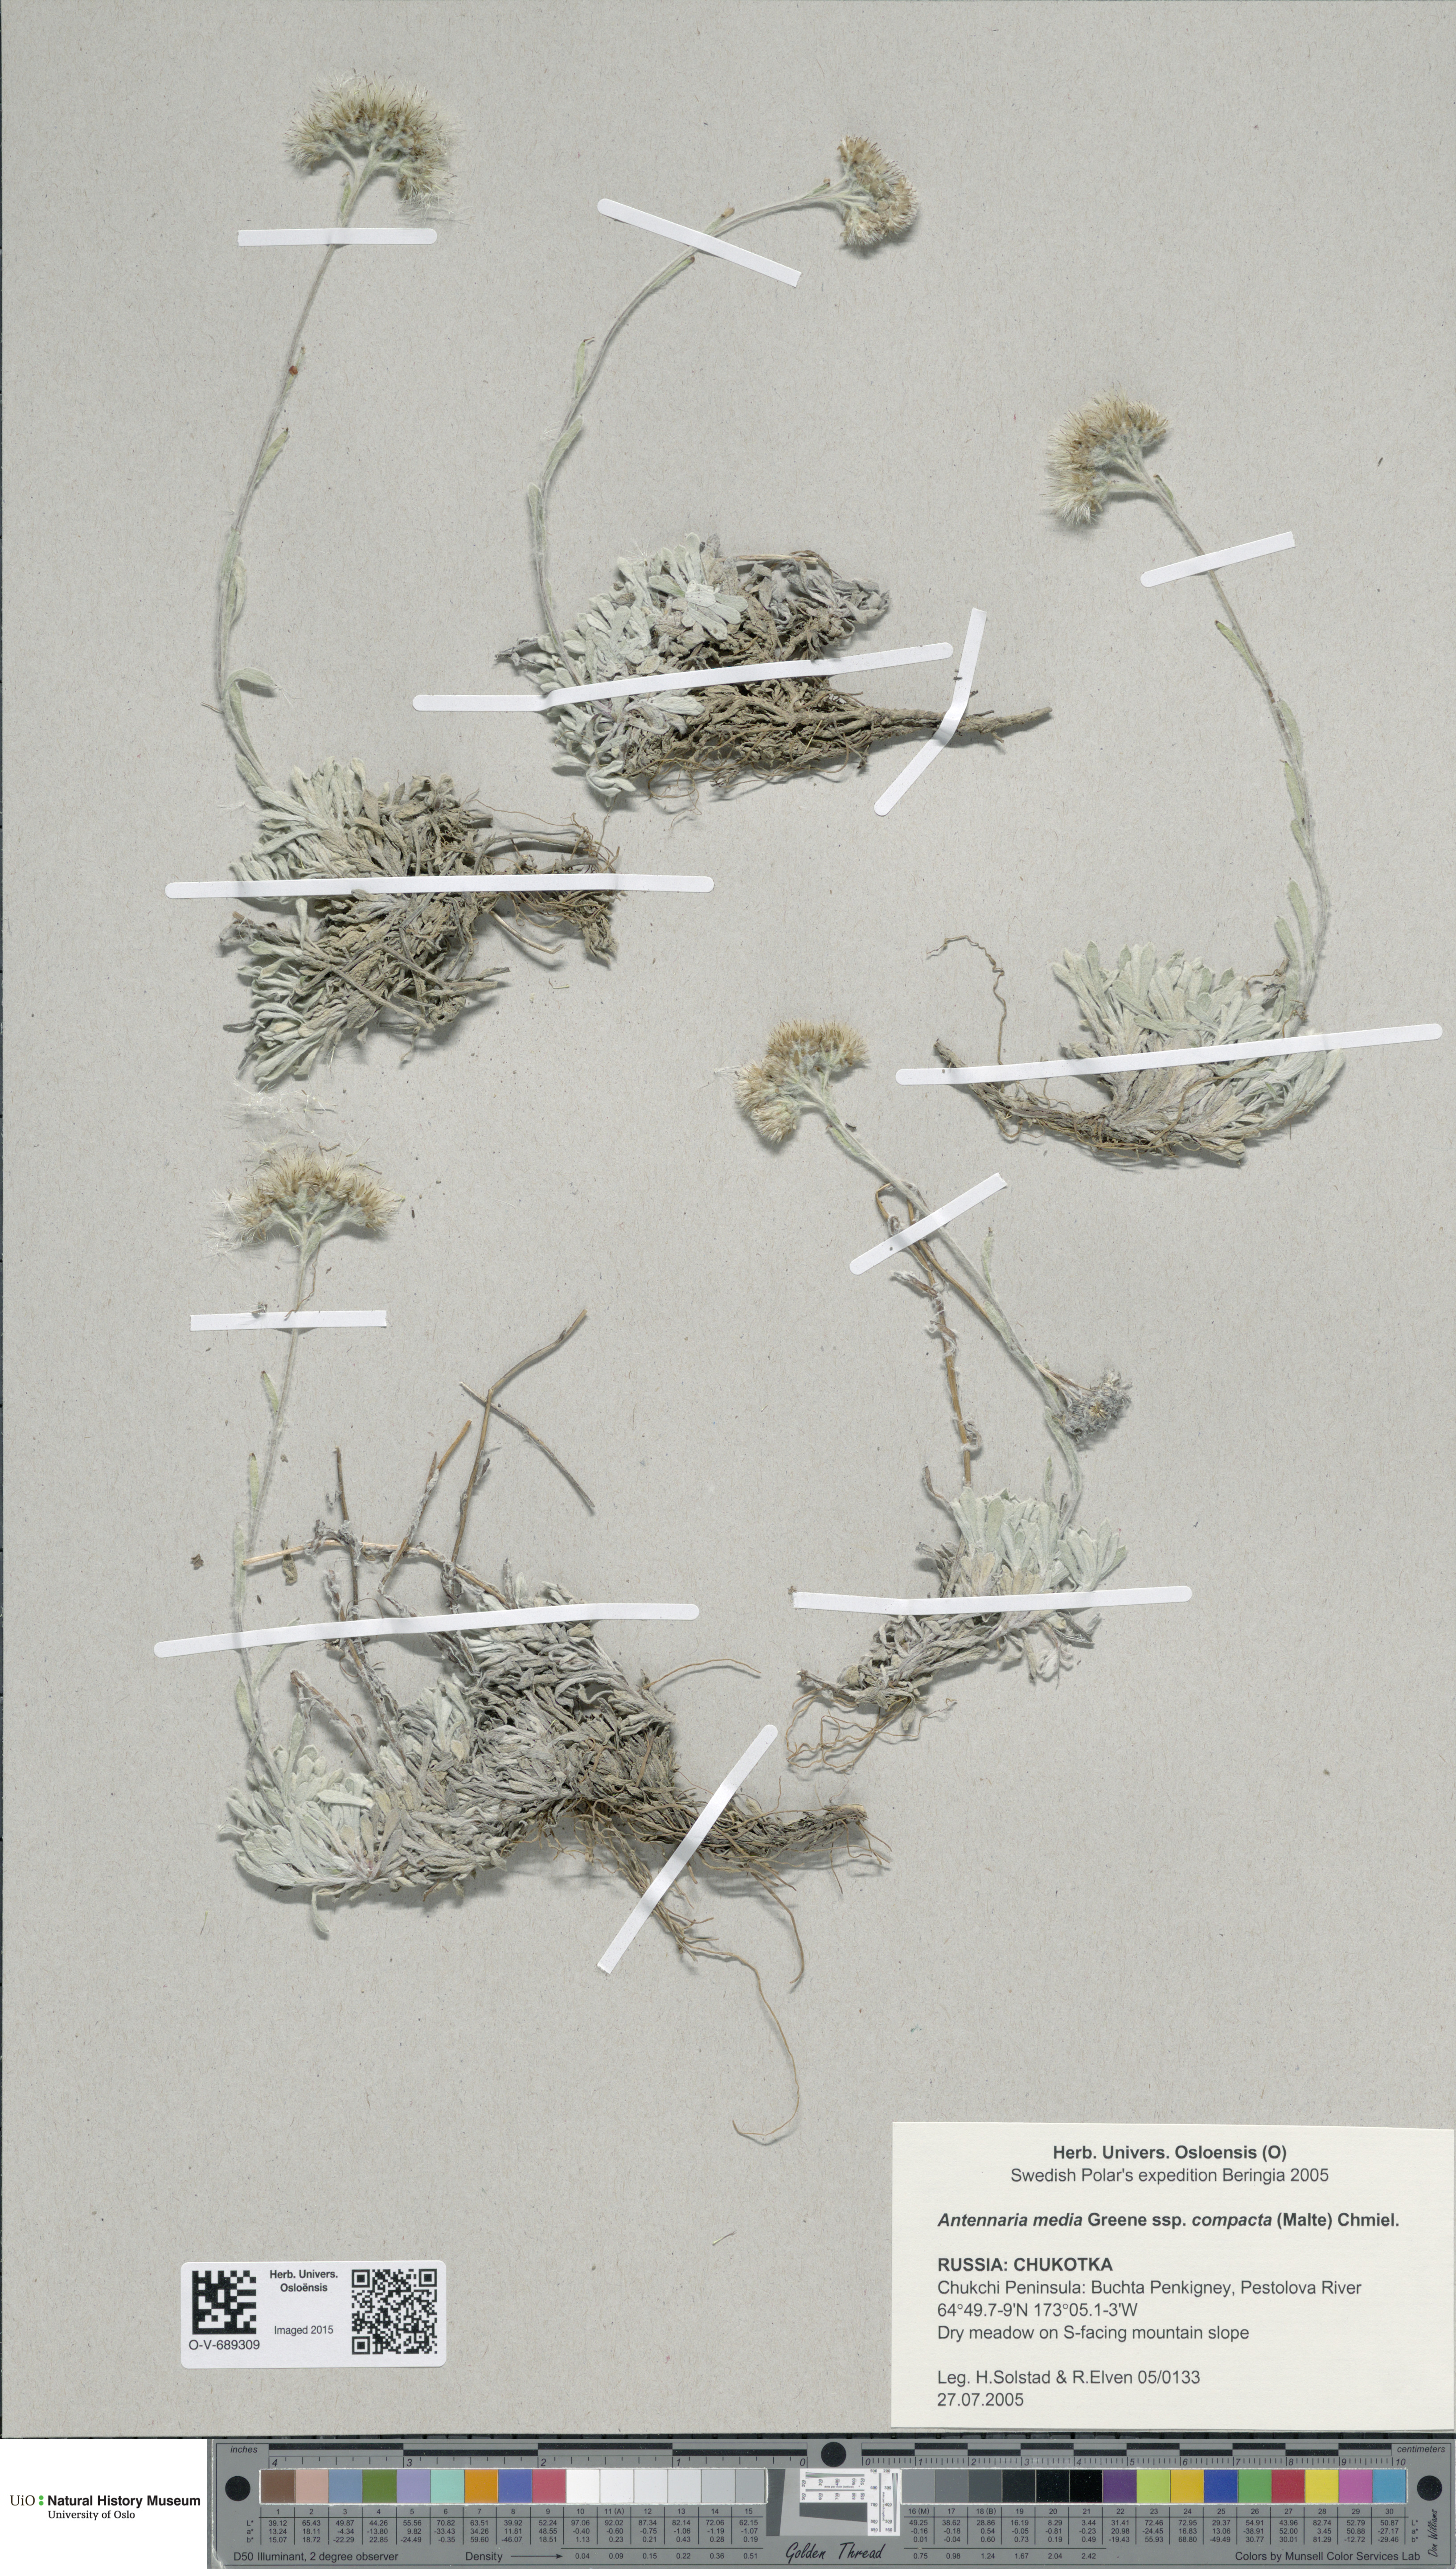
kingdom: Plantae
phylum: Tracheophyta
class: Magnoliopsida
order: Asterales
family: Asteraceae
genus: Antennaria
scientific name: Antennaria alpina
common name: Alpine pussytoes
